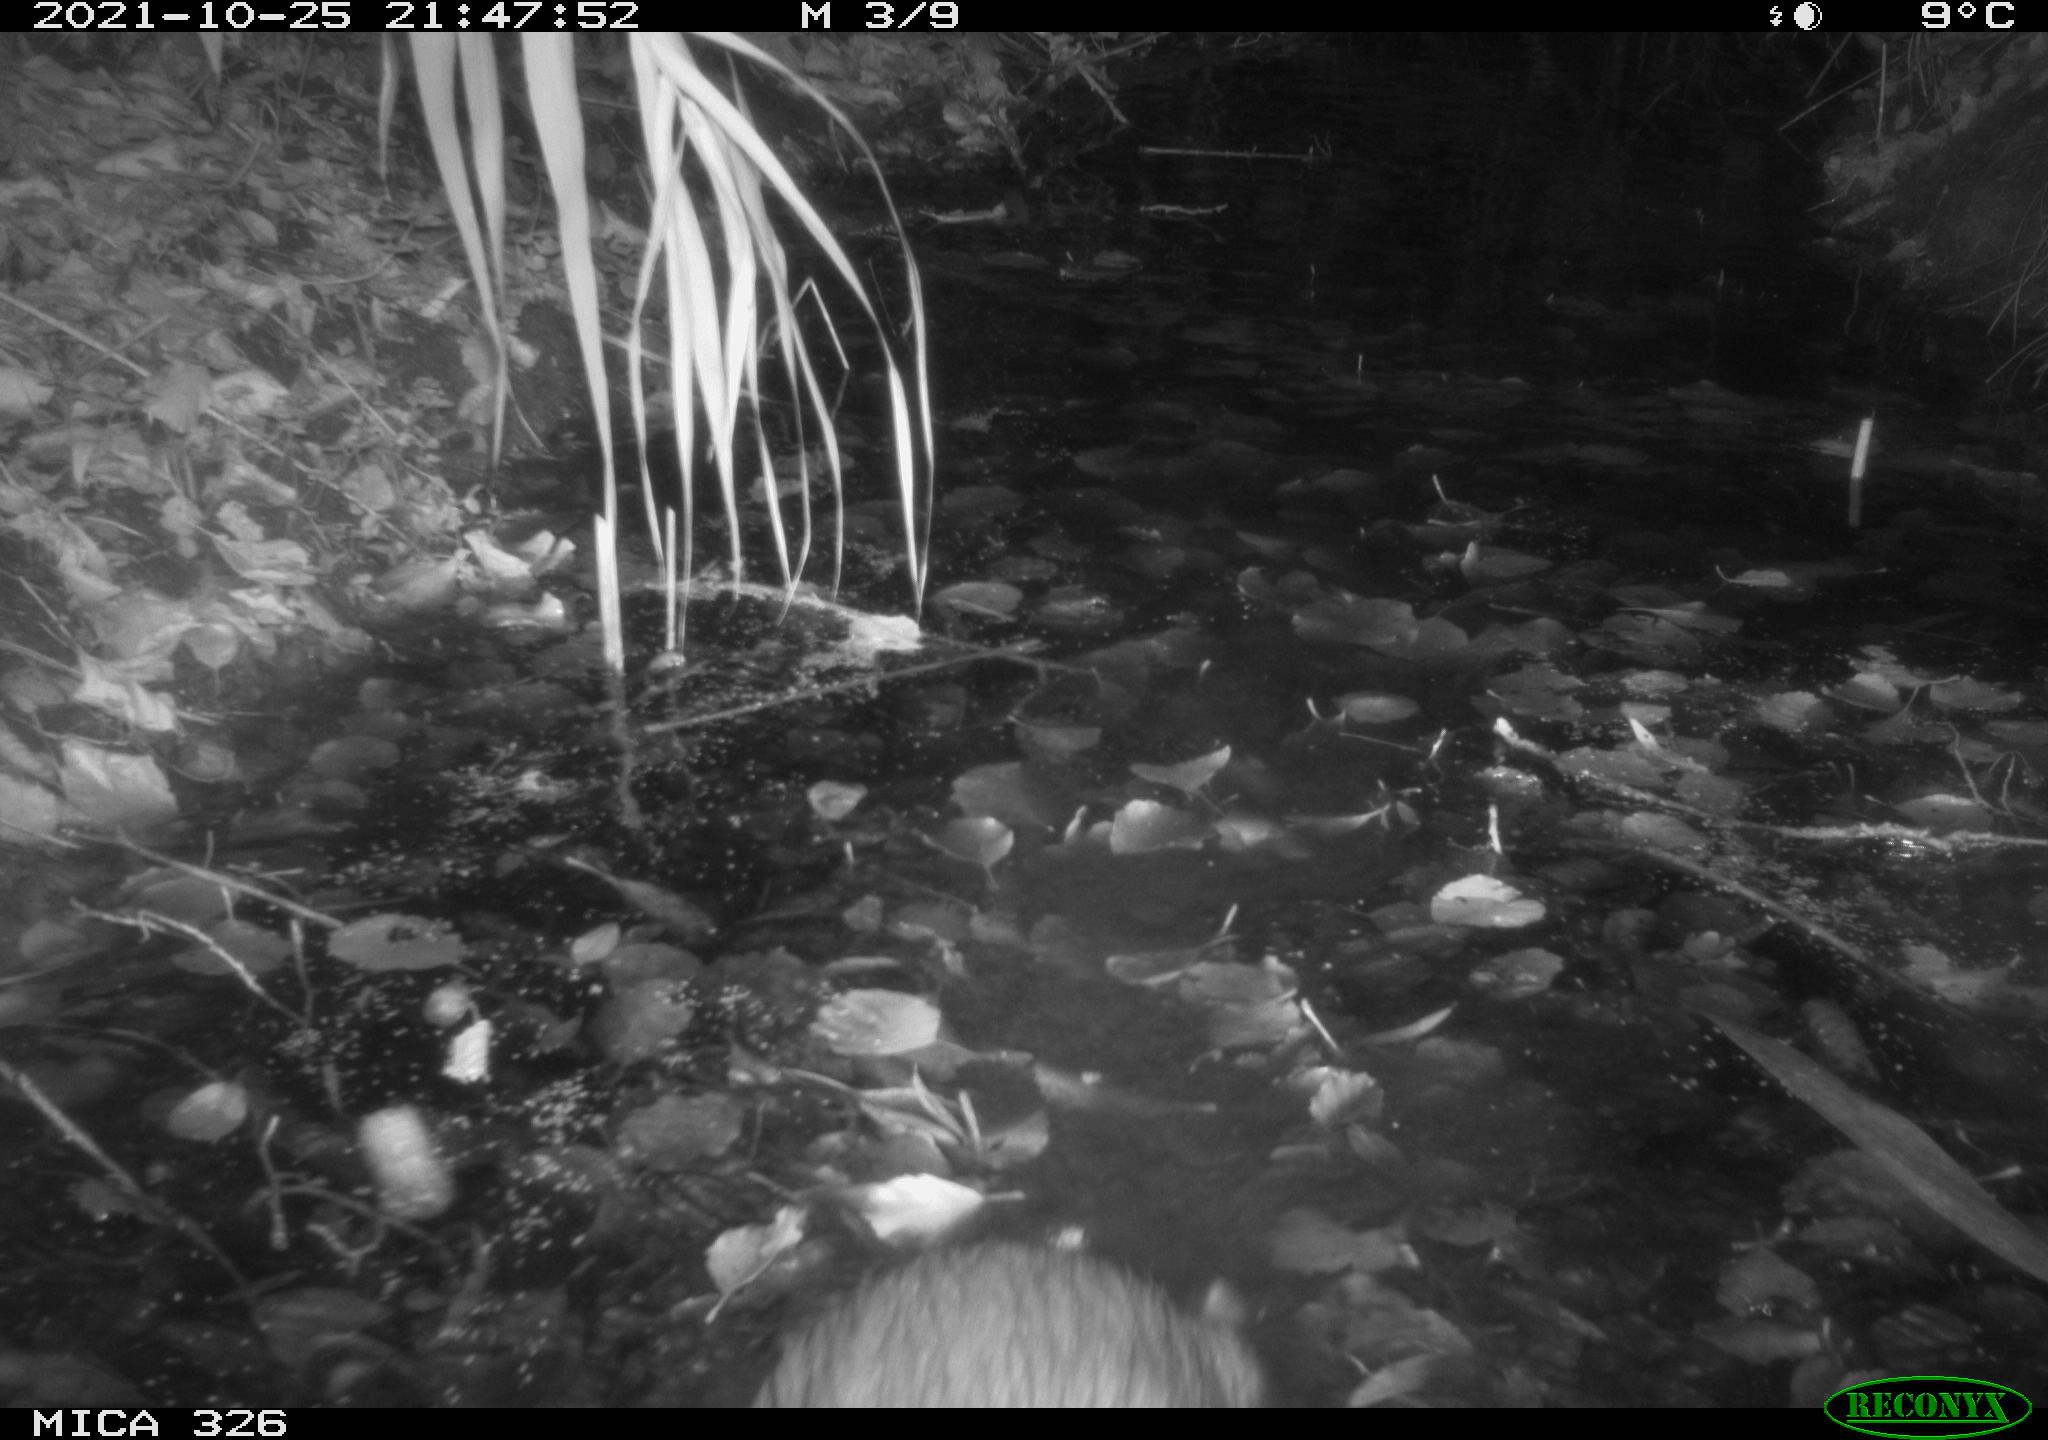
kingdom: Animalia
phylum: Chordata
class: Mammalia
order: Rodentia
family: Myocastoridae
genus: Myocastor
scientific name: Myocastor coypus
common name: Coypu
